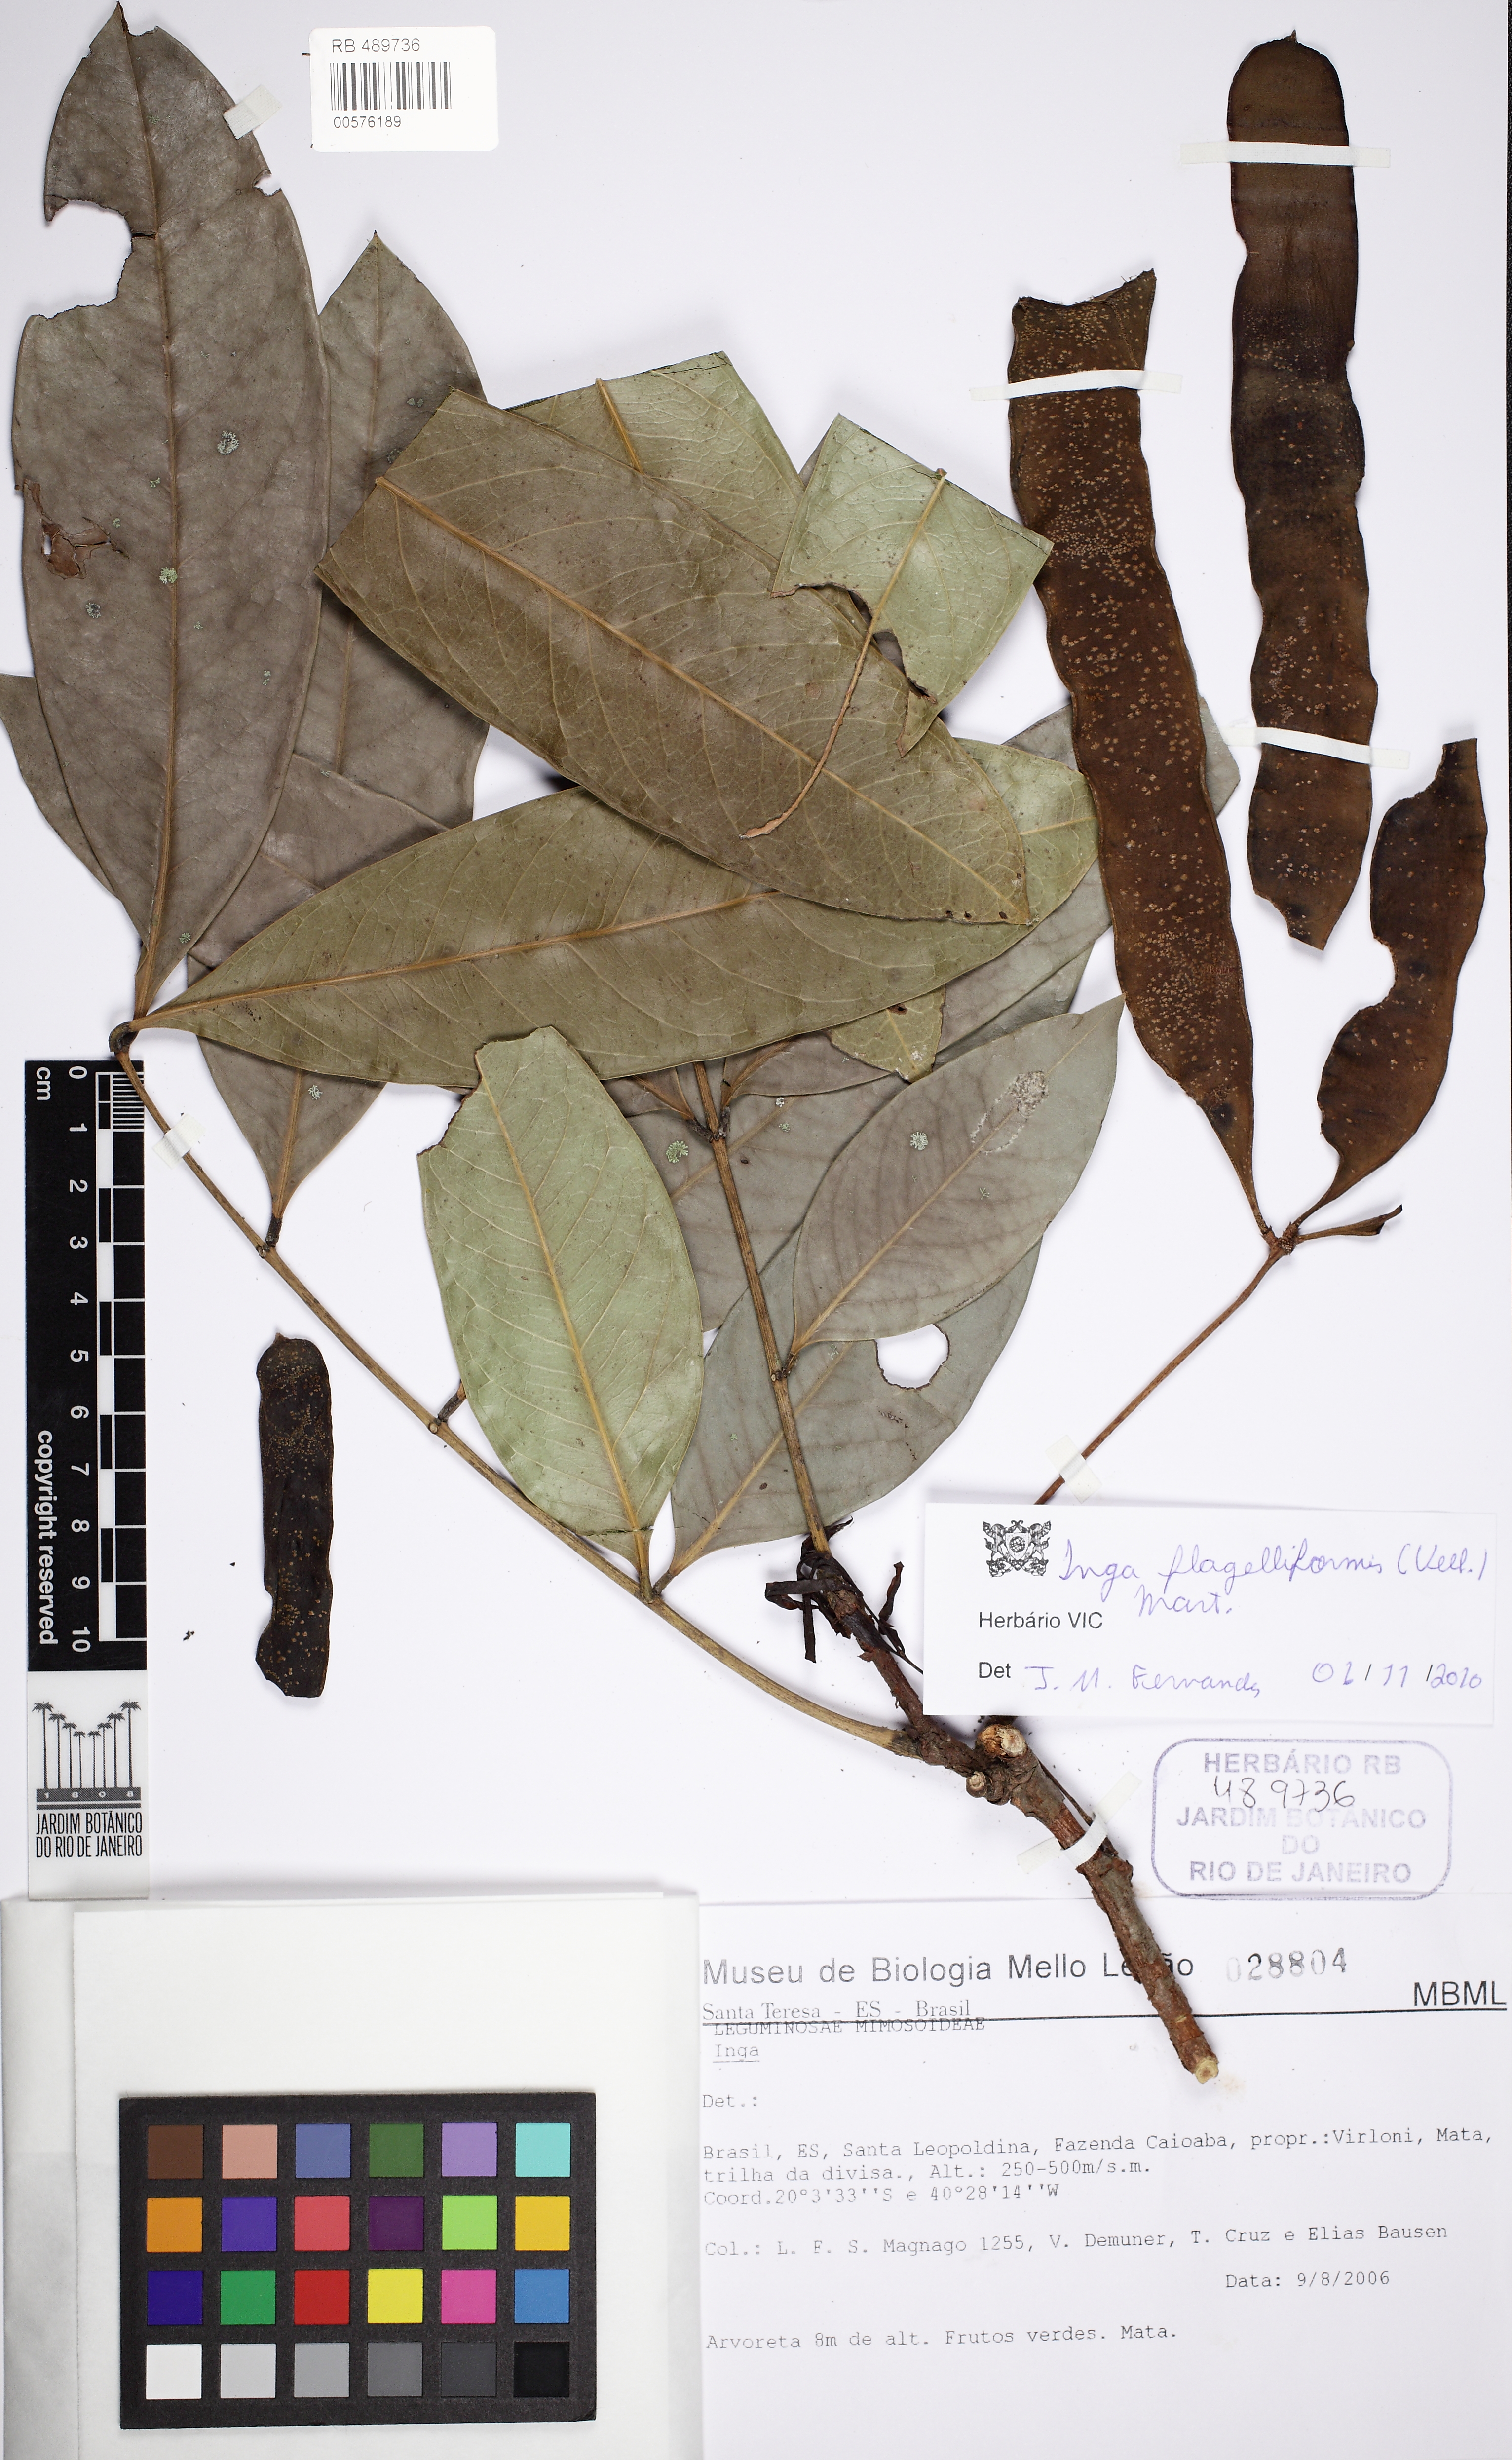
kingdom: Plantae
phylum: Tracheophyta
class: Magnoliopsida
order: Fabales
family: Fabaceae
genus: Inga
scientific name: Inga exfoliata
